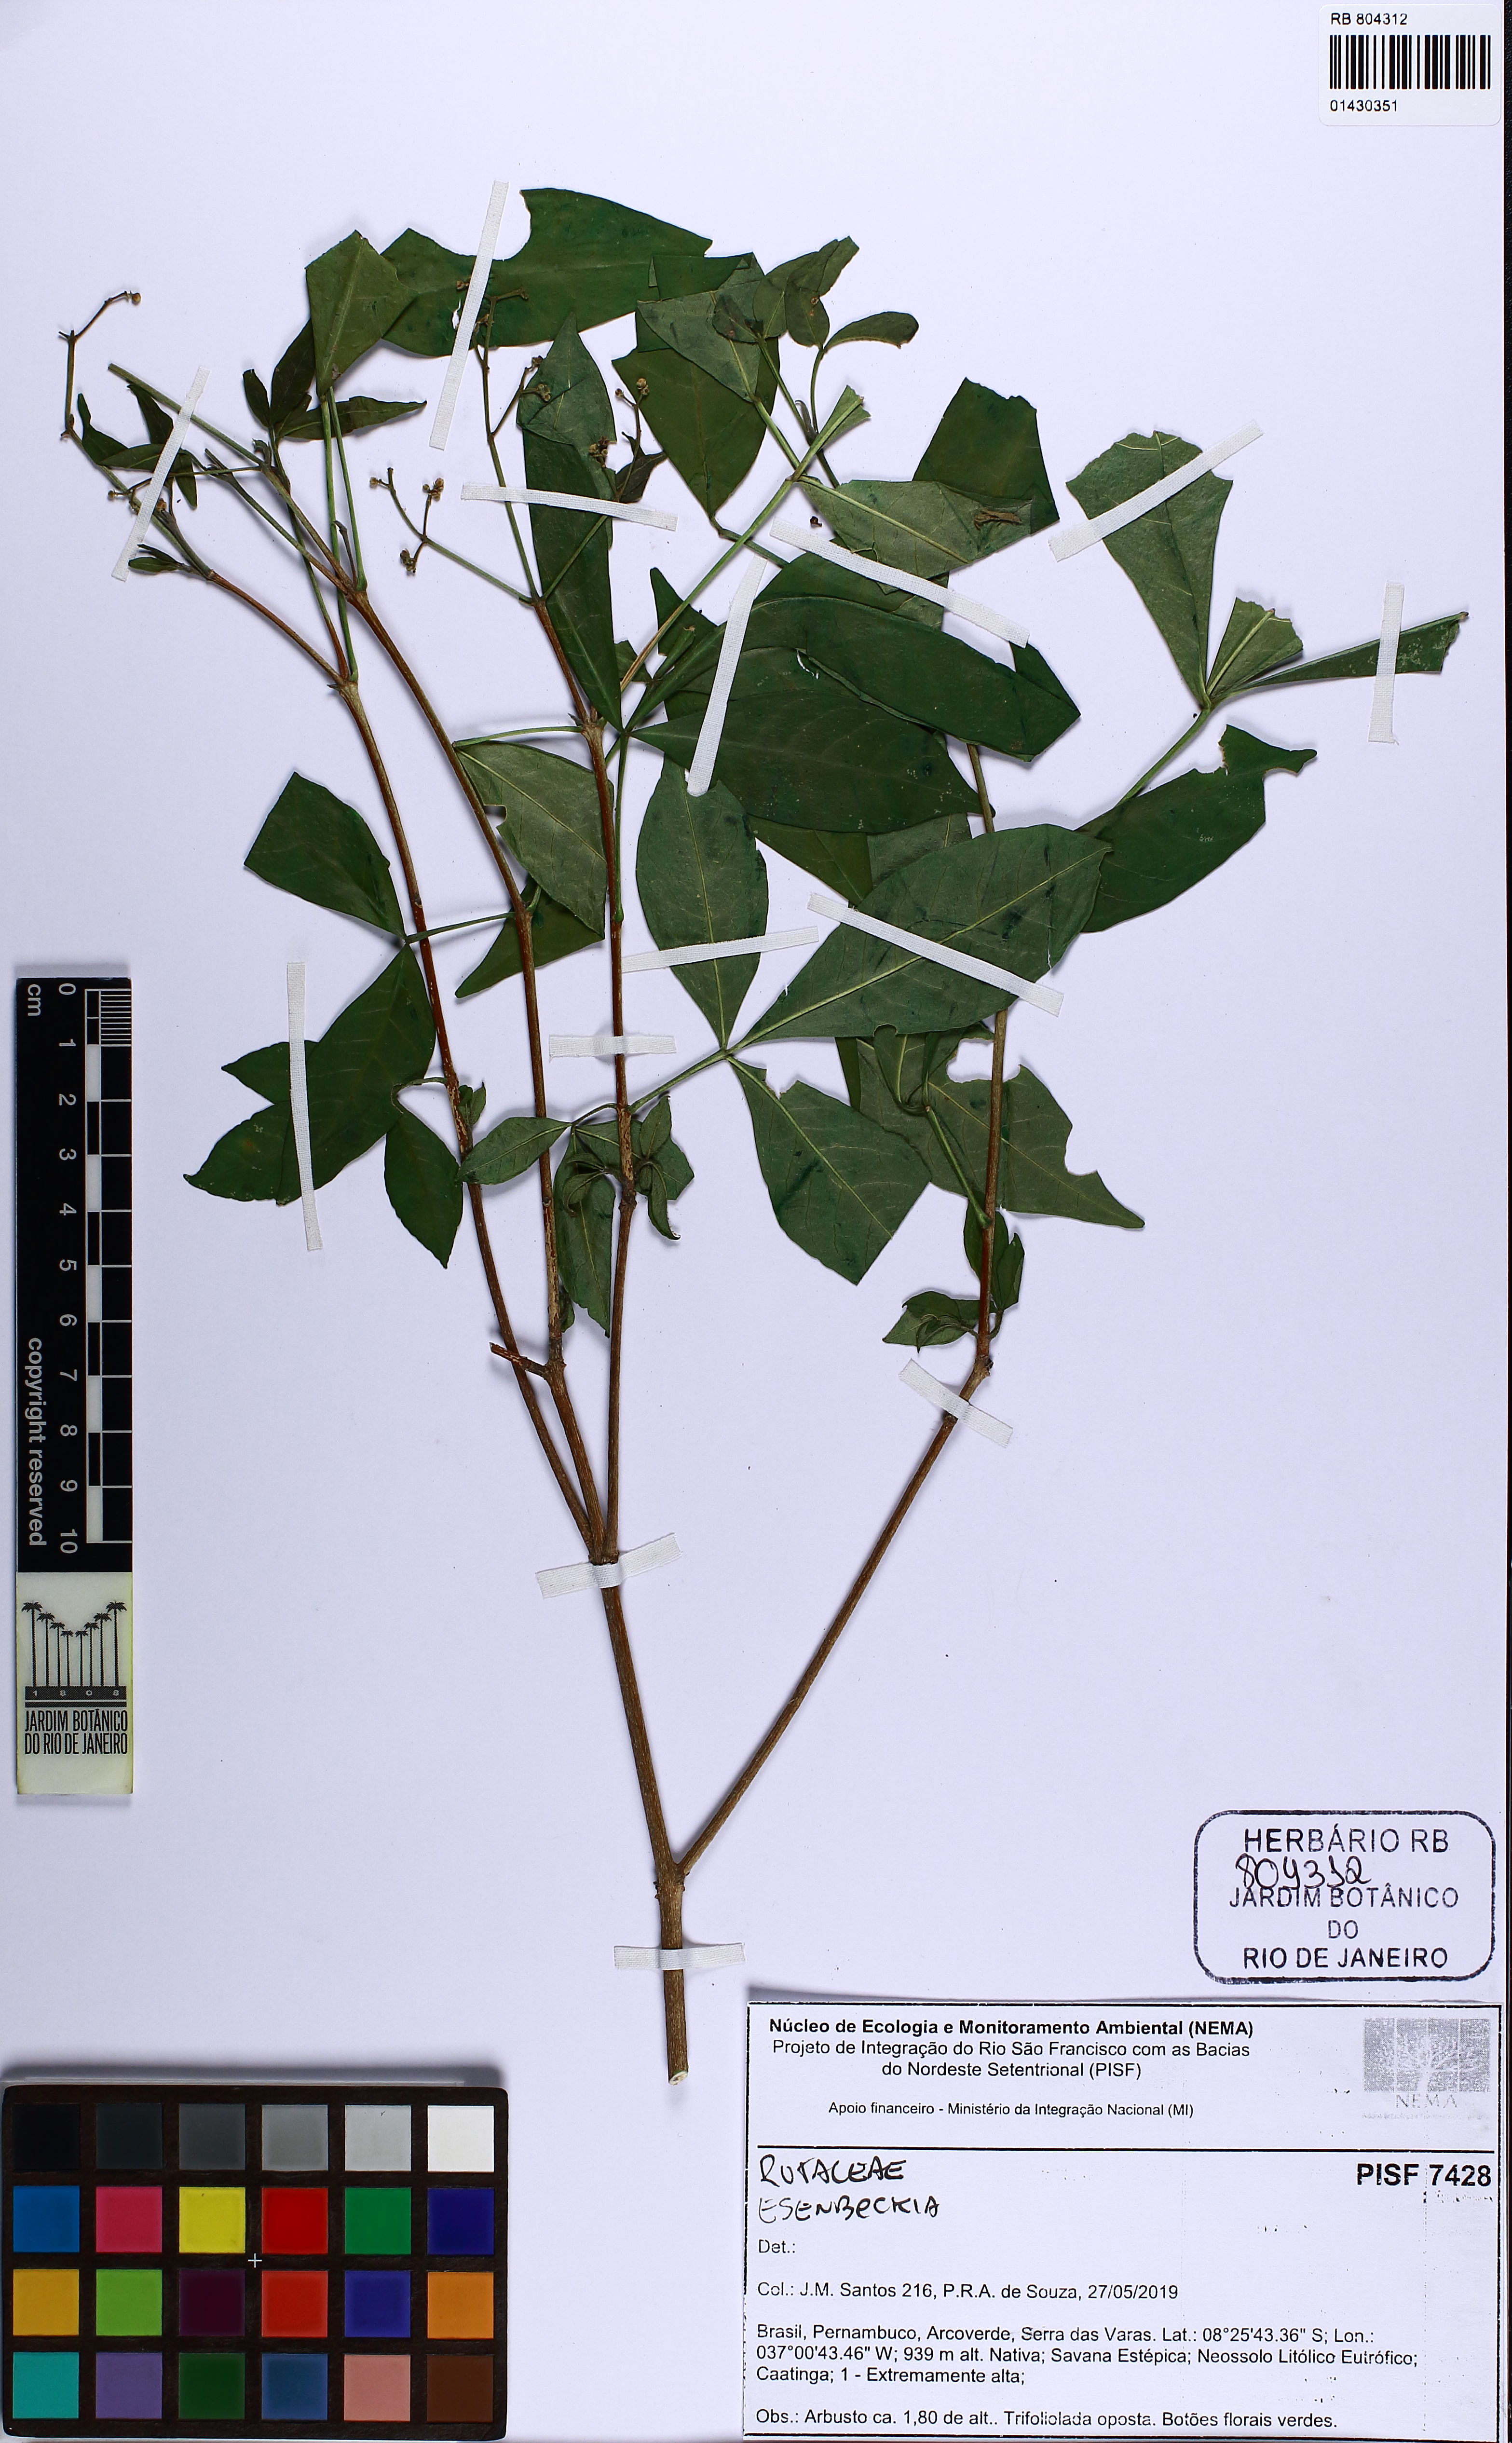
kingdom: Plantae
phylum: Tracheophyta
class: Magnoliopsida
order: Sapindales
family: Rutaceae
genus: Esenbeckia
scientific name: Esenbeckia
